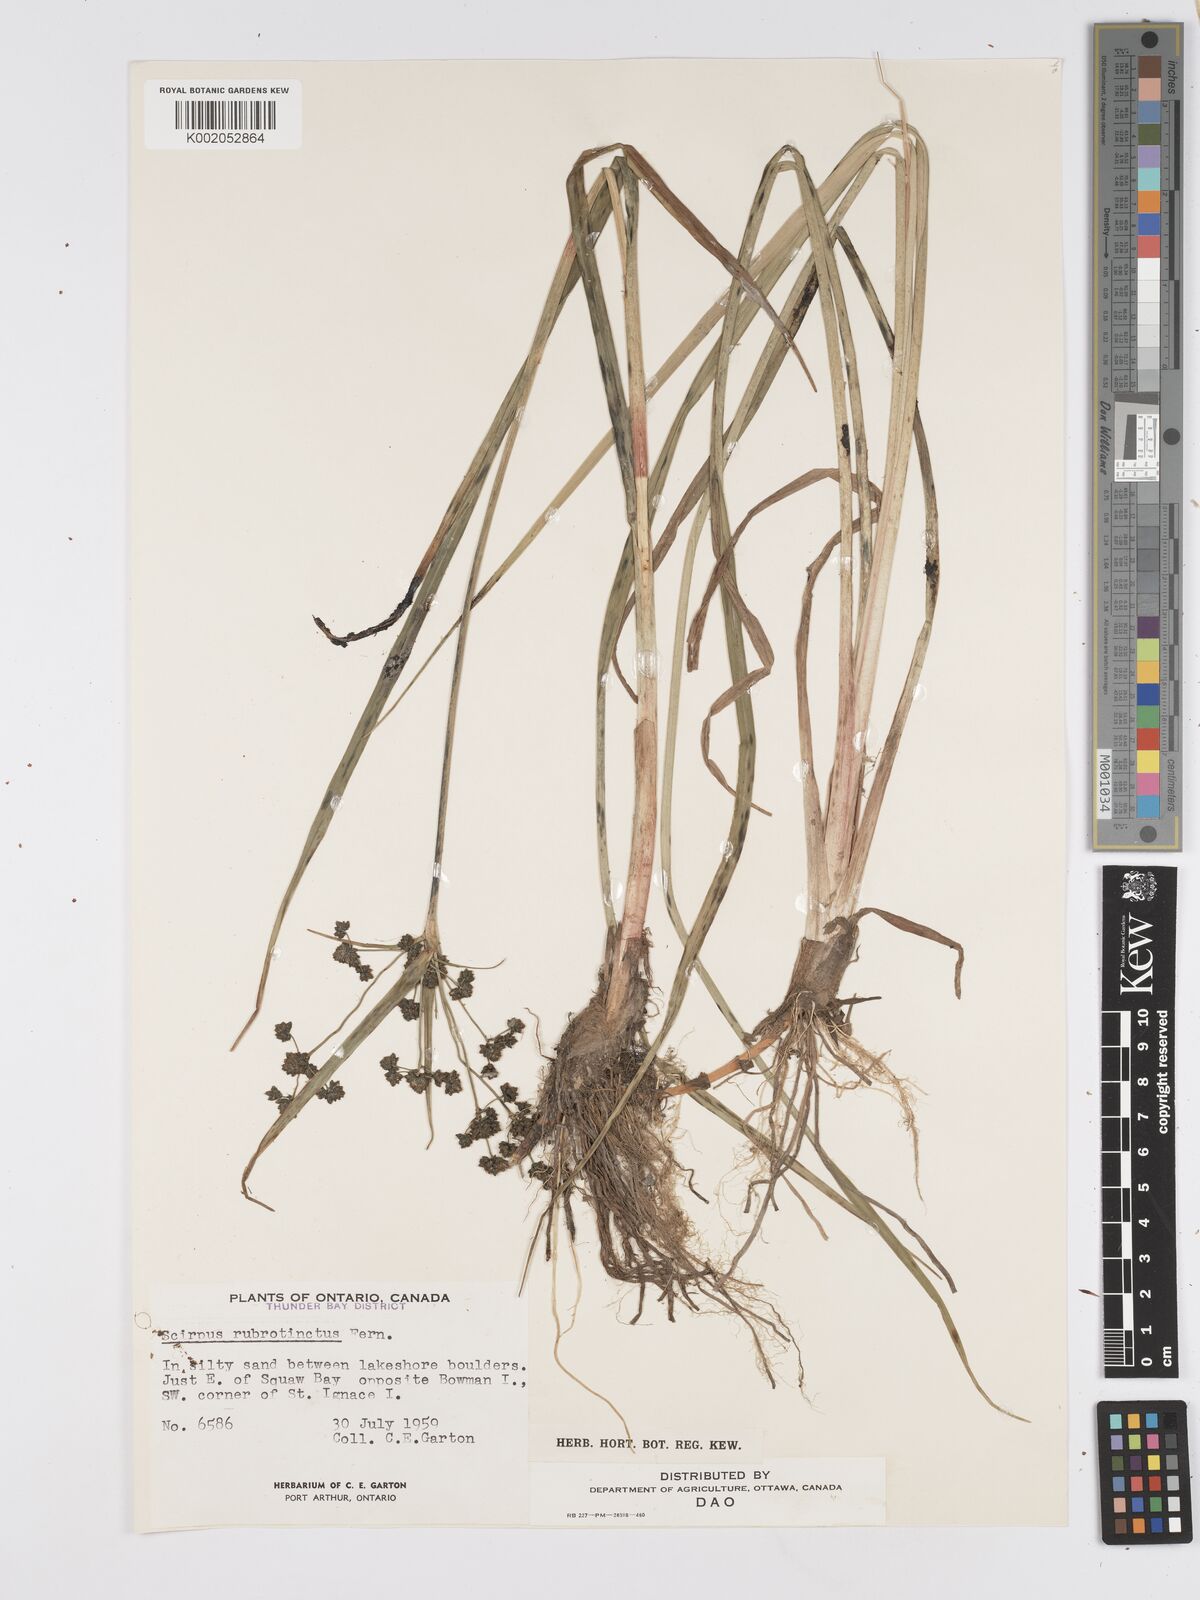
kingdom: Plantae
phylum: Tracheophyta
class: Liliopsida
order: Poales
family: Cyperaceae
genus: Scirpus
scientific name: Scirpus microcarpus
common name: Panicled bulrush
